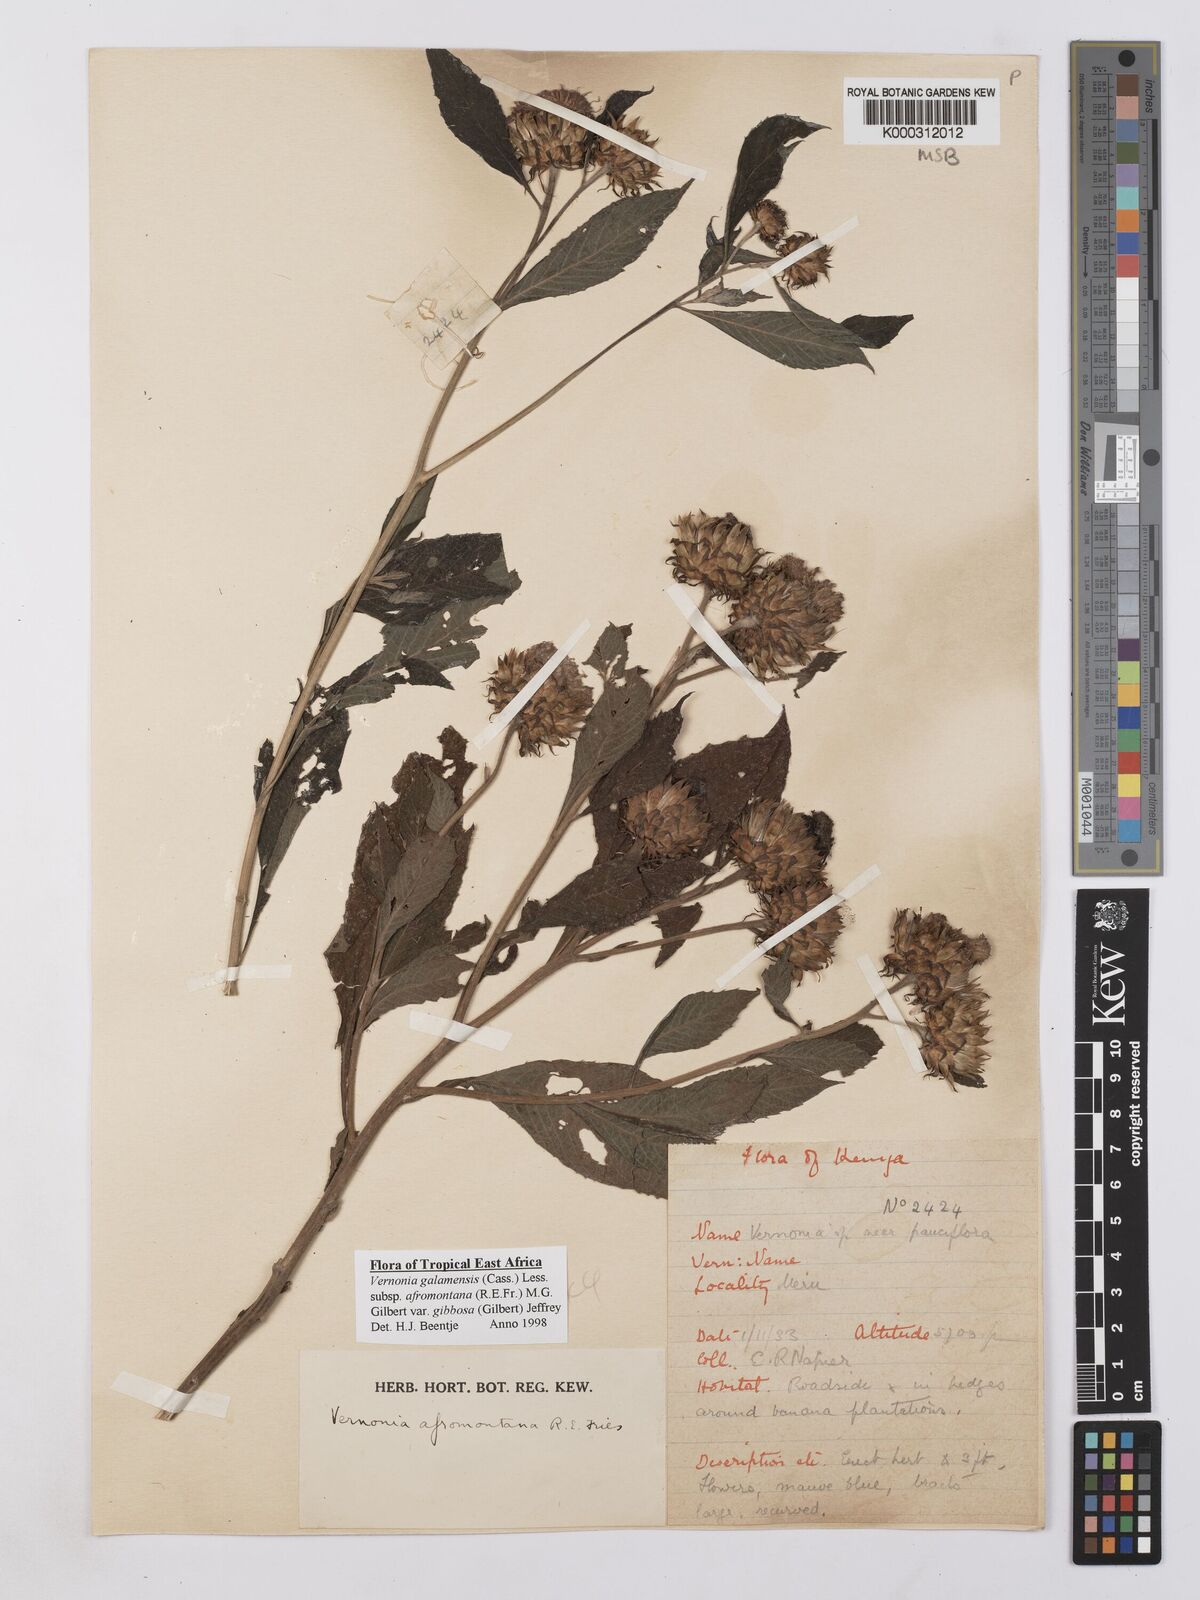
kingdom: Plantae
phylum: Tracheophyta
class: Magnoliopsida
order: Asterales
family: Asteraceae
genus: Vernonia
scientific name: Vernonia galamensis
